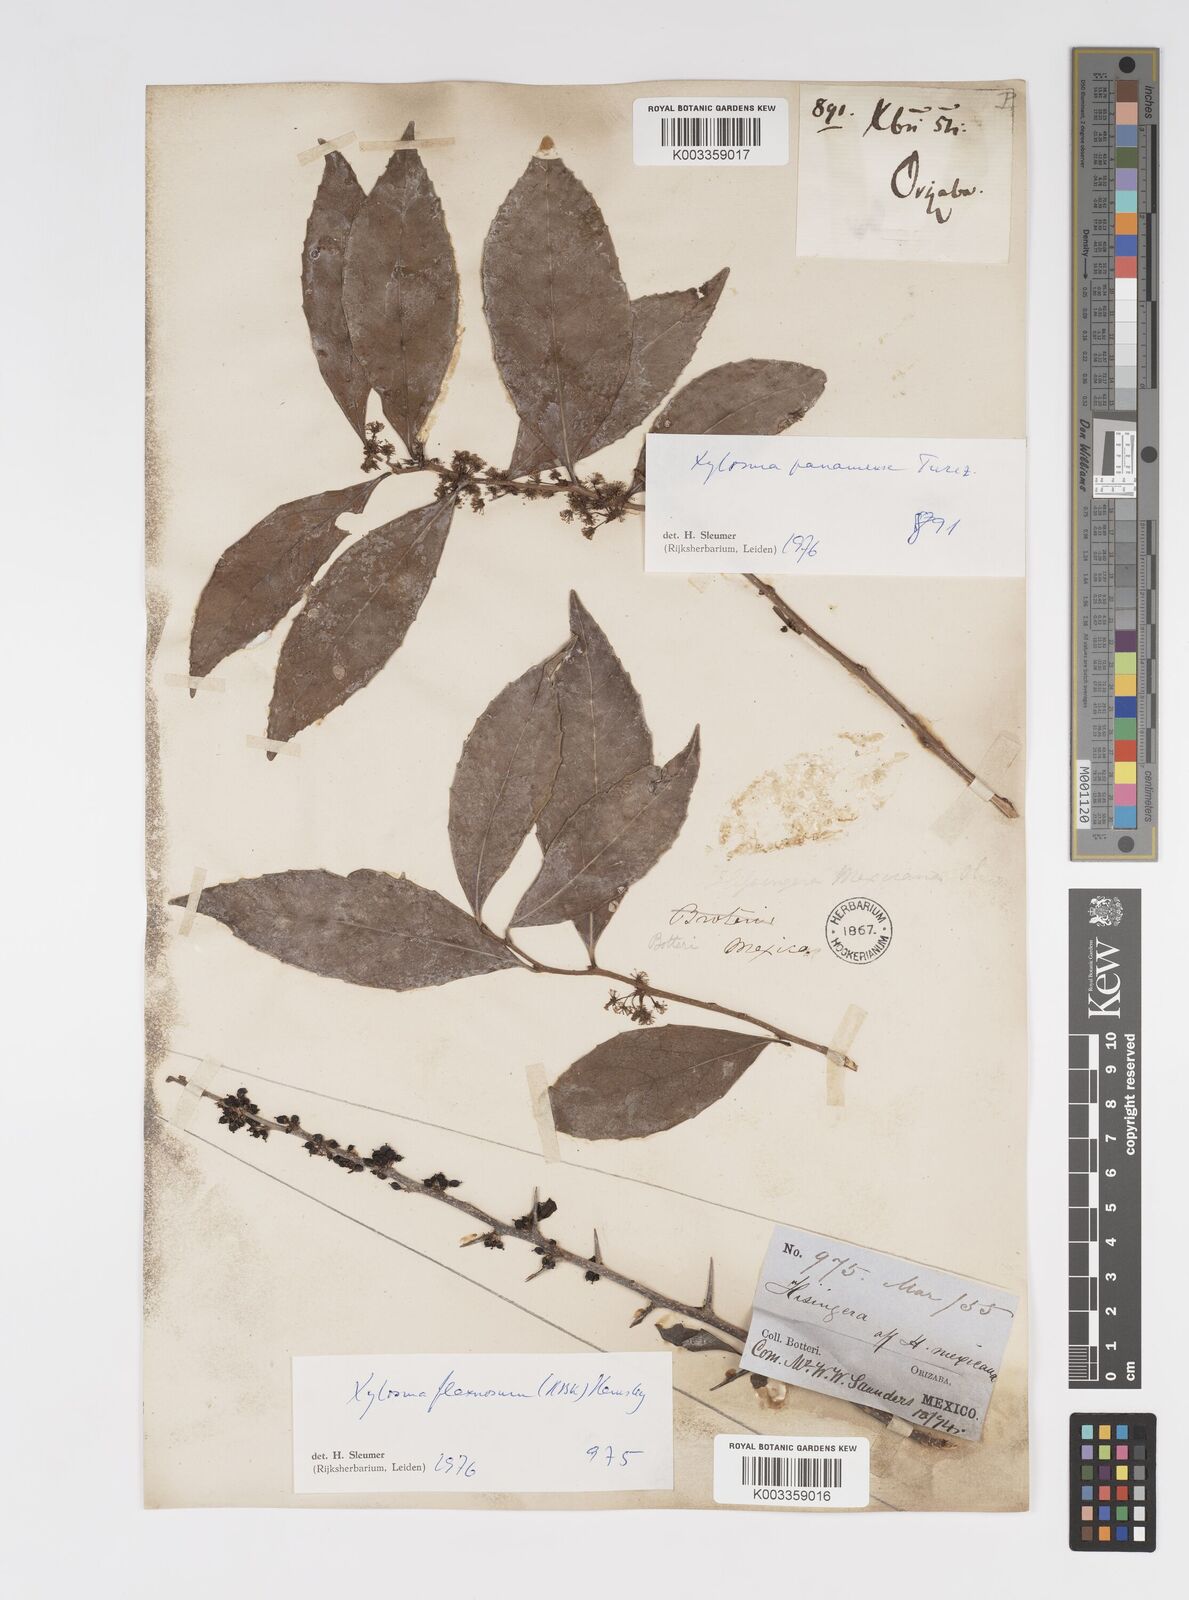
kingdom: Plantae
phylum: Tracheophyta
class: Magnoliopsida
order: Malpighiales
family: Salicaceae
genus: Xylosma
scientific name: Xylosma panamensis
